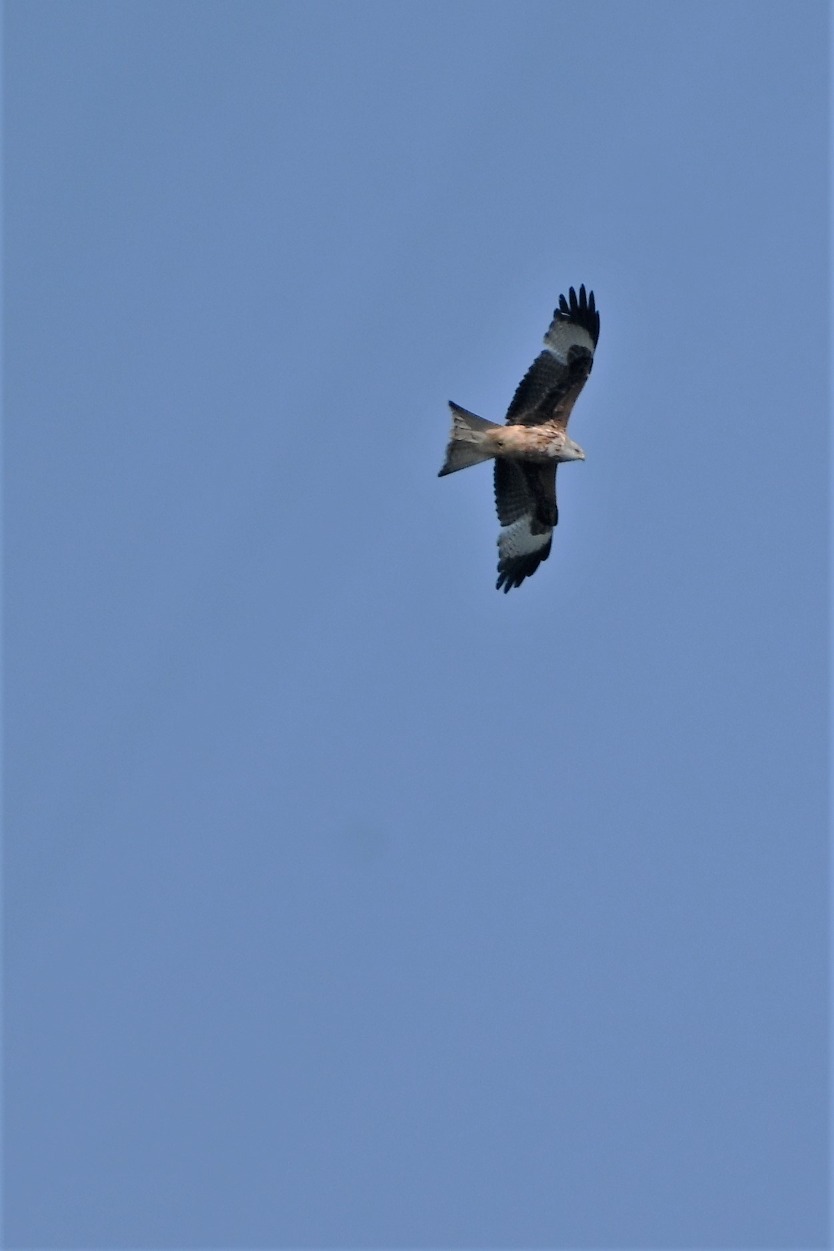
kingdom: Animalia
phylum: Chordata
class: Aves
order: Accipitriformes
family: Accipitridae
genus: Milvus
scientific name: Milvus milvus
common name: Rød glente
